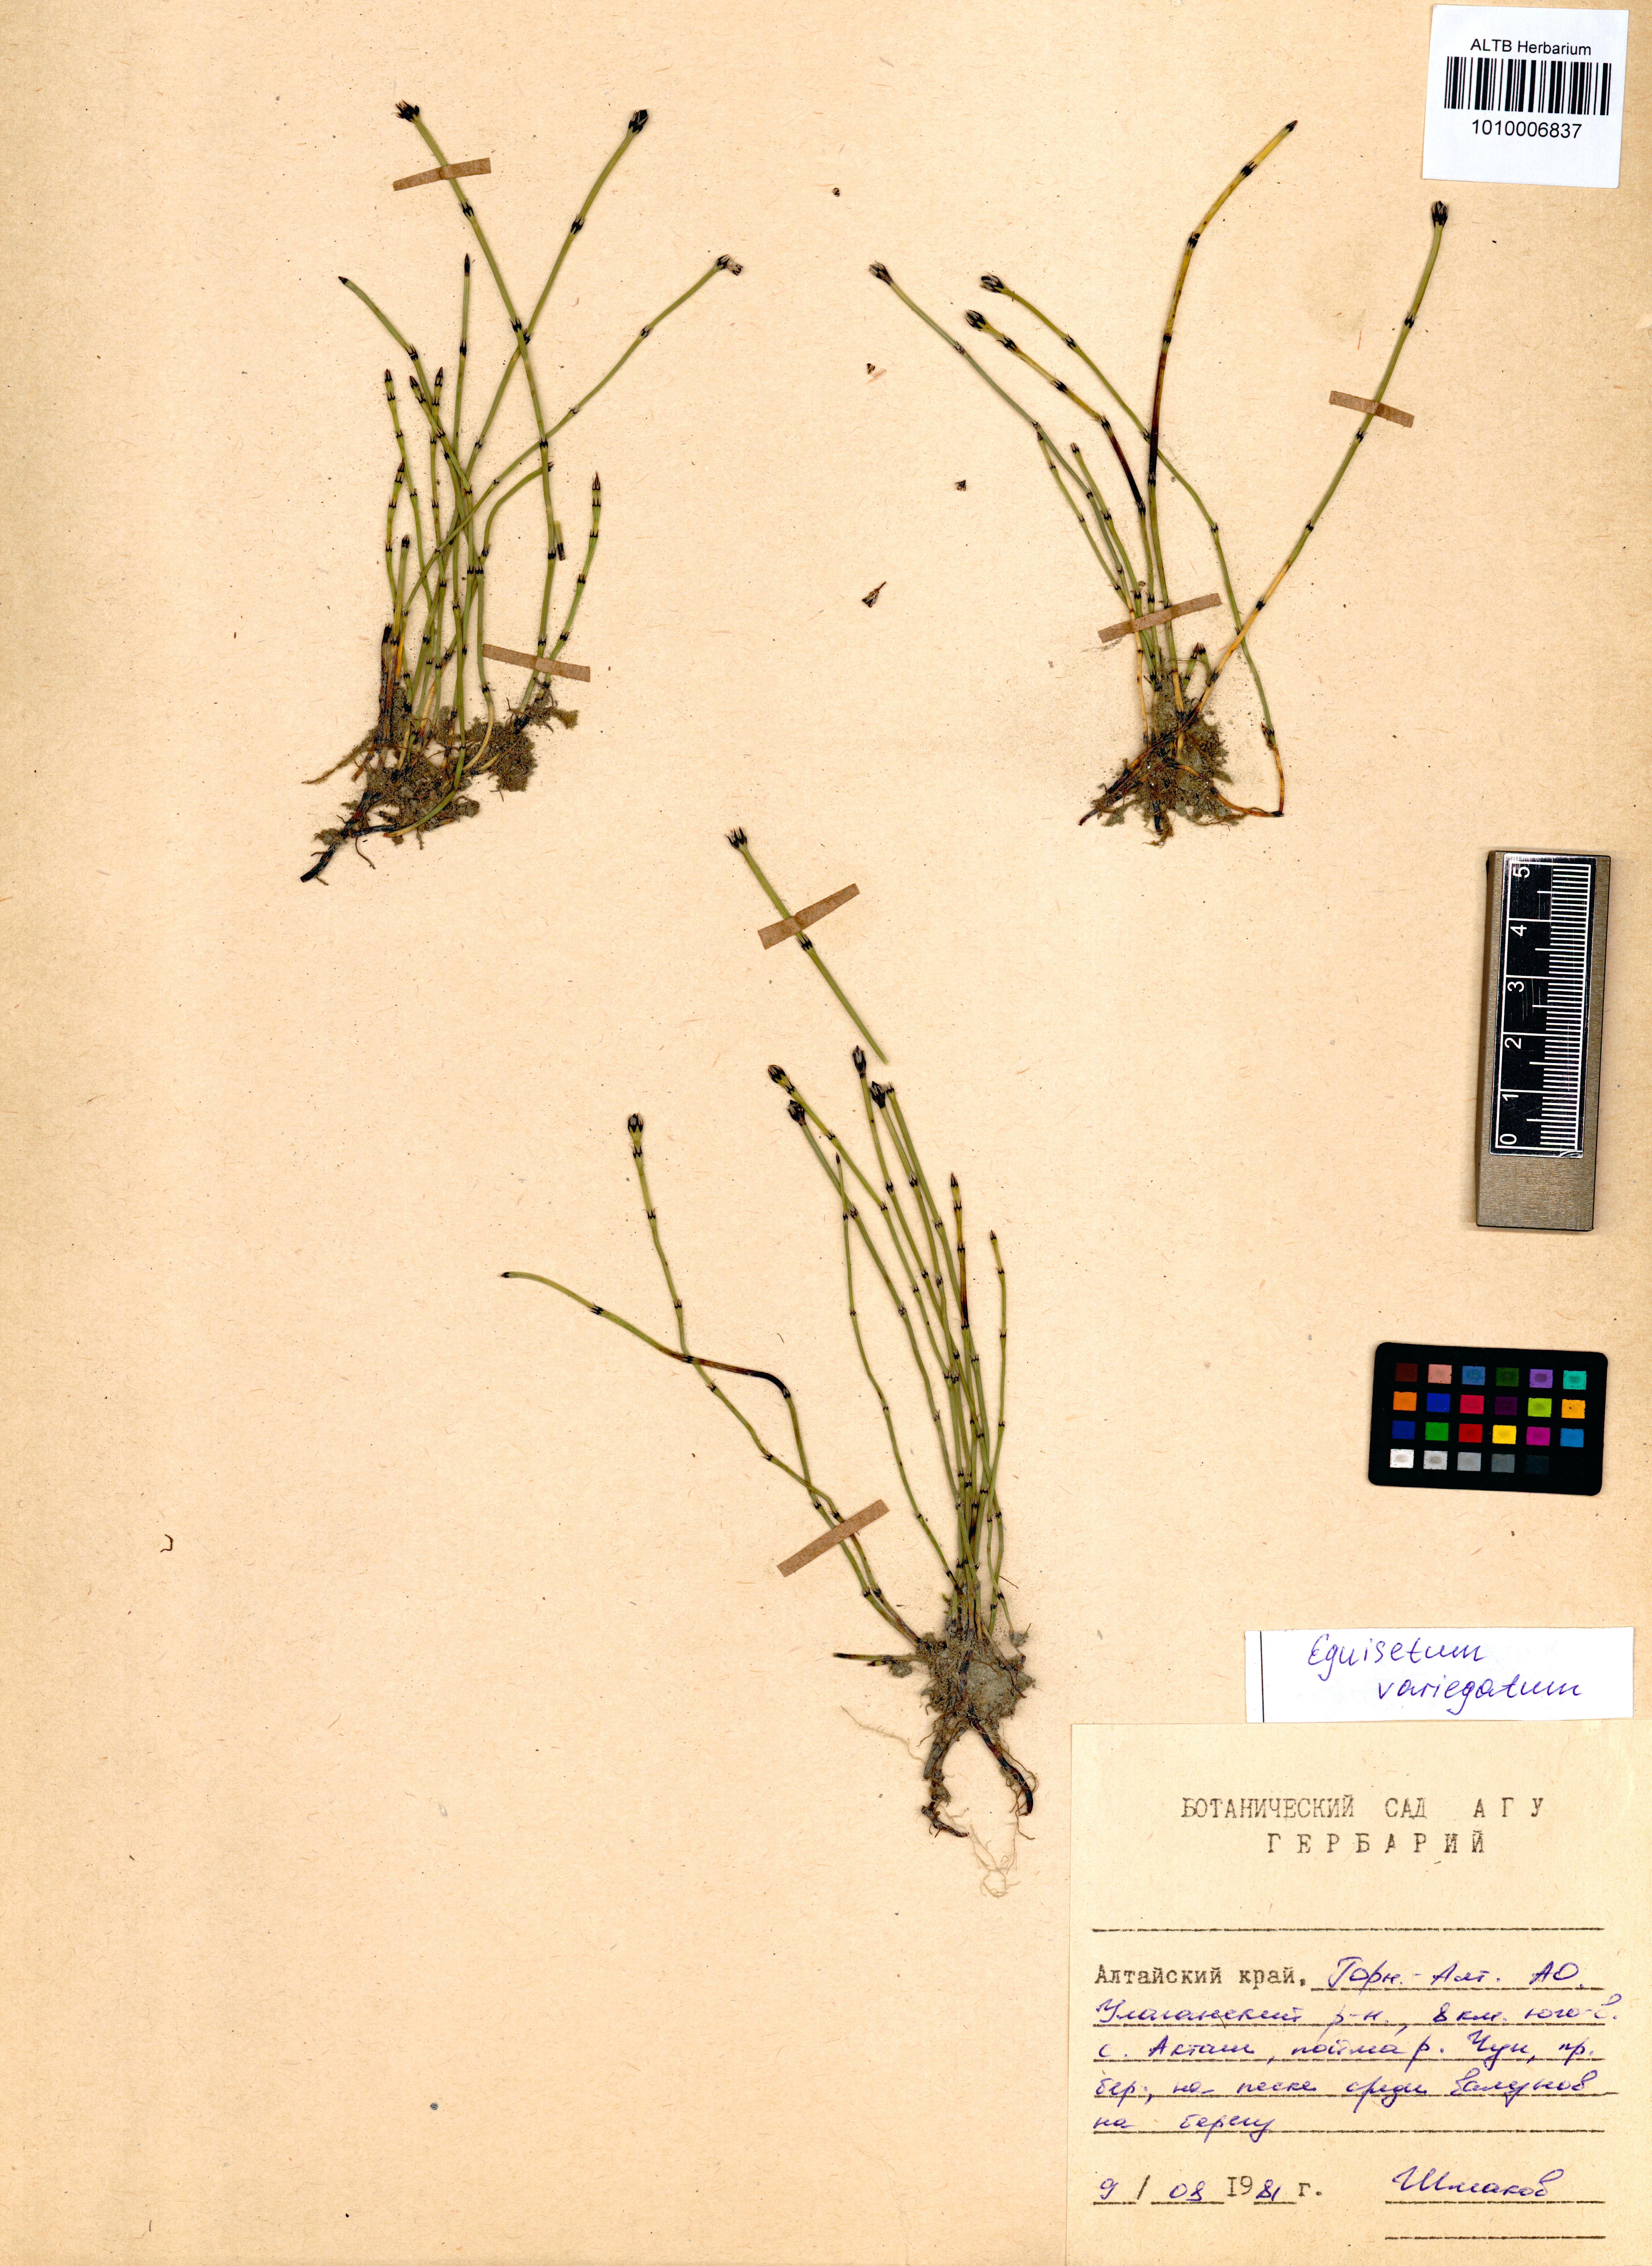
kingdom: Plantae
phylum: Tracheophyta
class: Polypodiopsida
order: Equisetales
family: Equisetaceae
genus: Equisetum
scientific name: Equisetum variegatum
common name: Variegated horsetail
